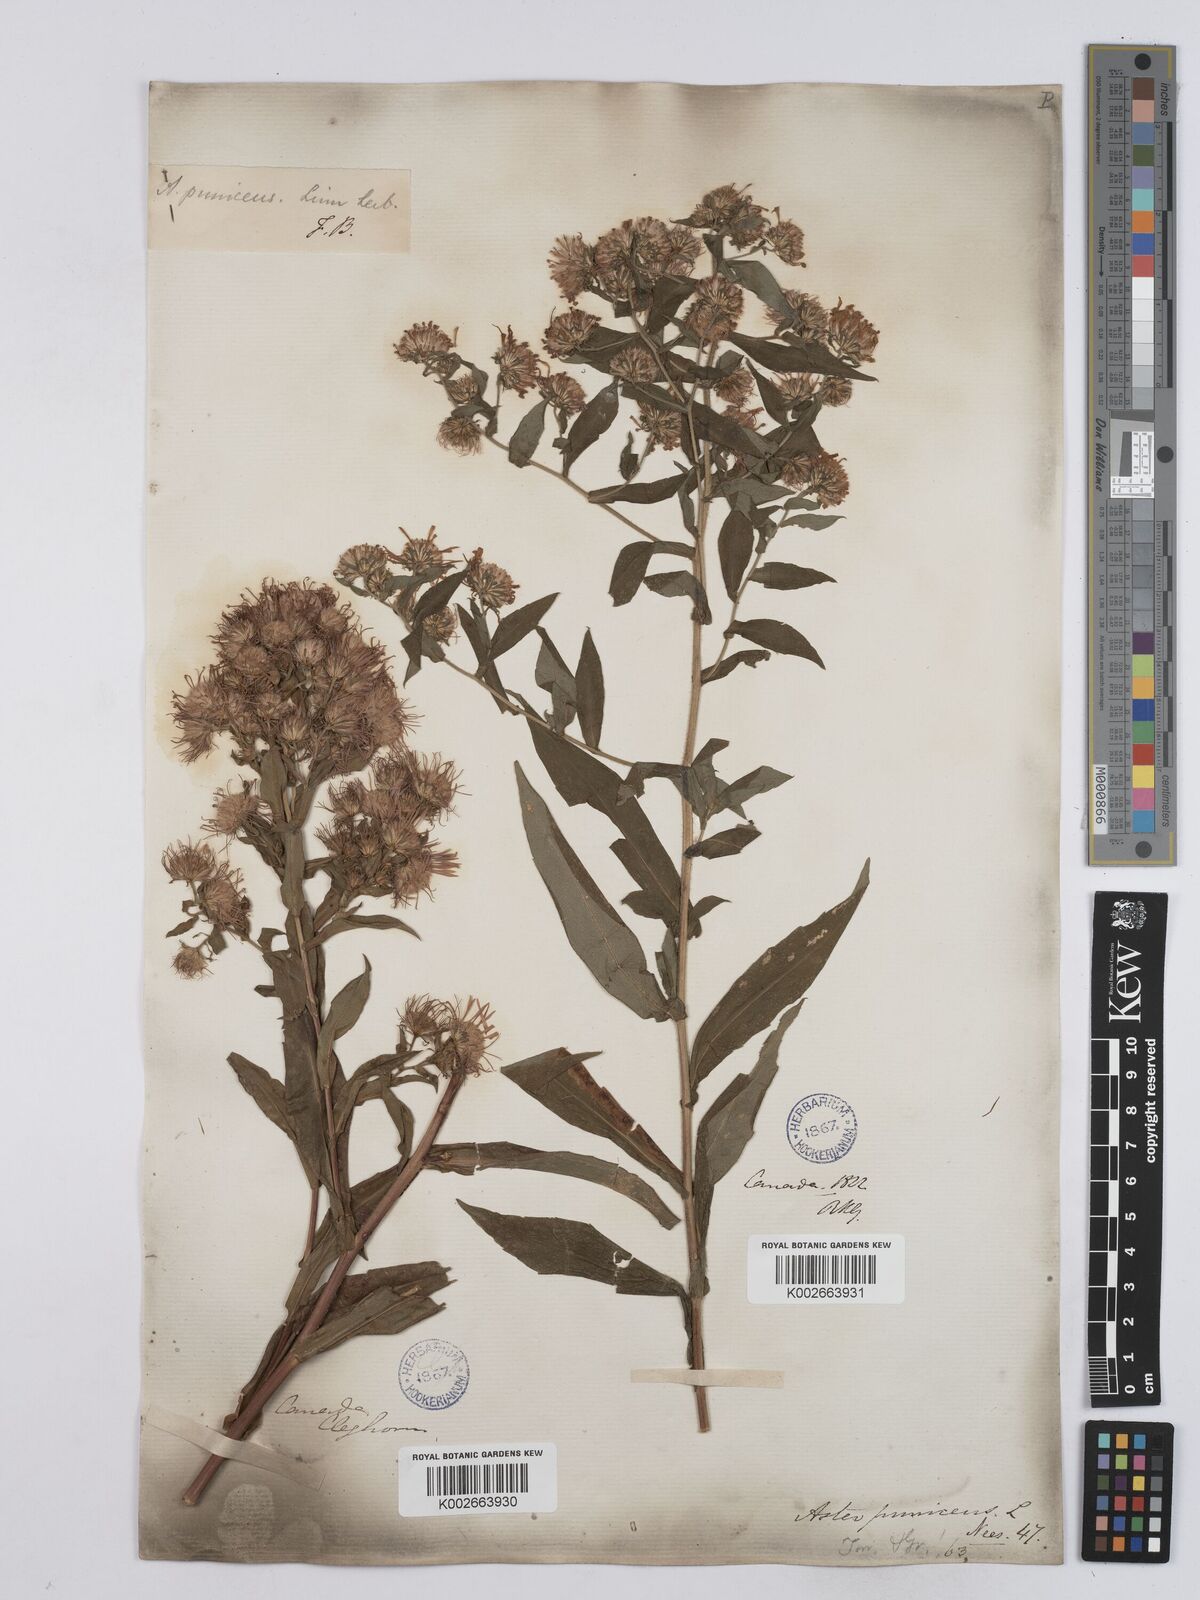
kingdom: Plantae
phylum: Tracheophyta
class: Magnoliopsida
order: Asterales
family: Asteraceae
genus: Symphyotrichum
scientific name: Symphyotrichum puniceum
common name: Bog aster
